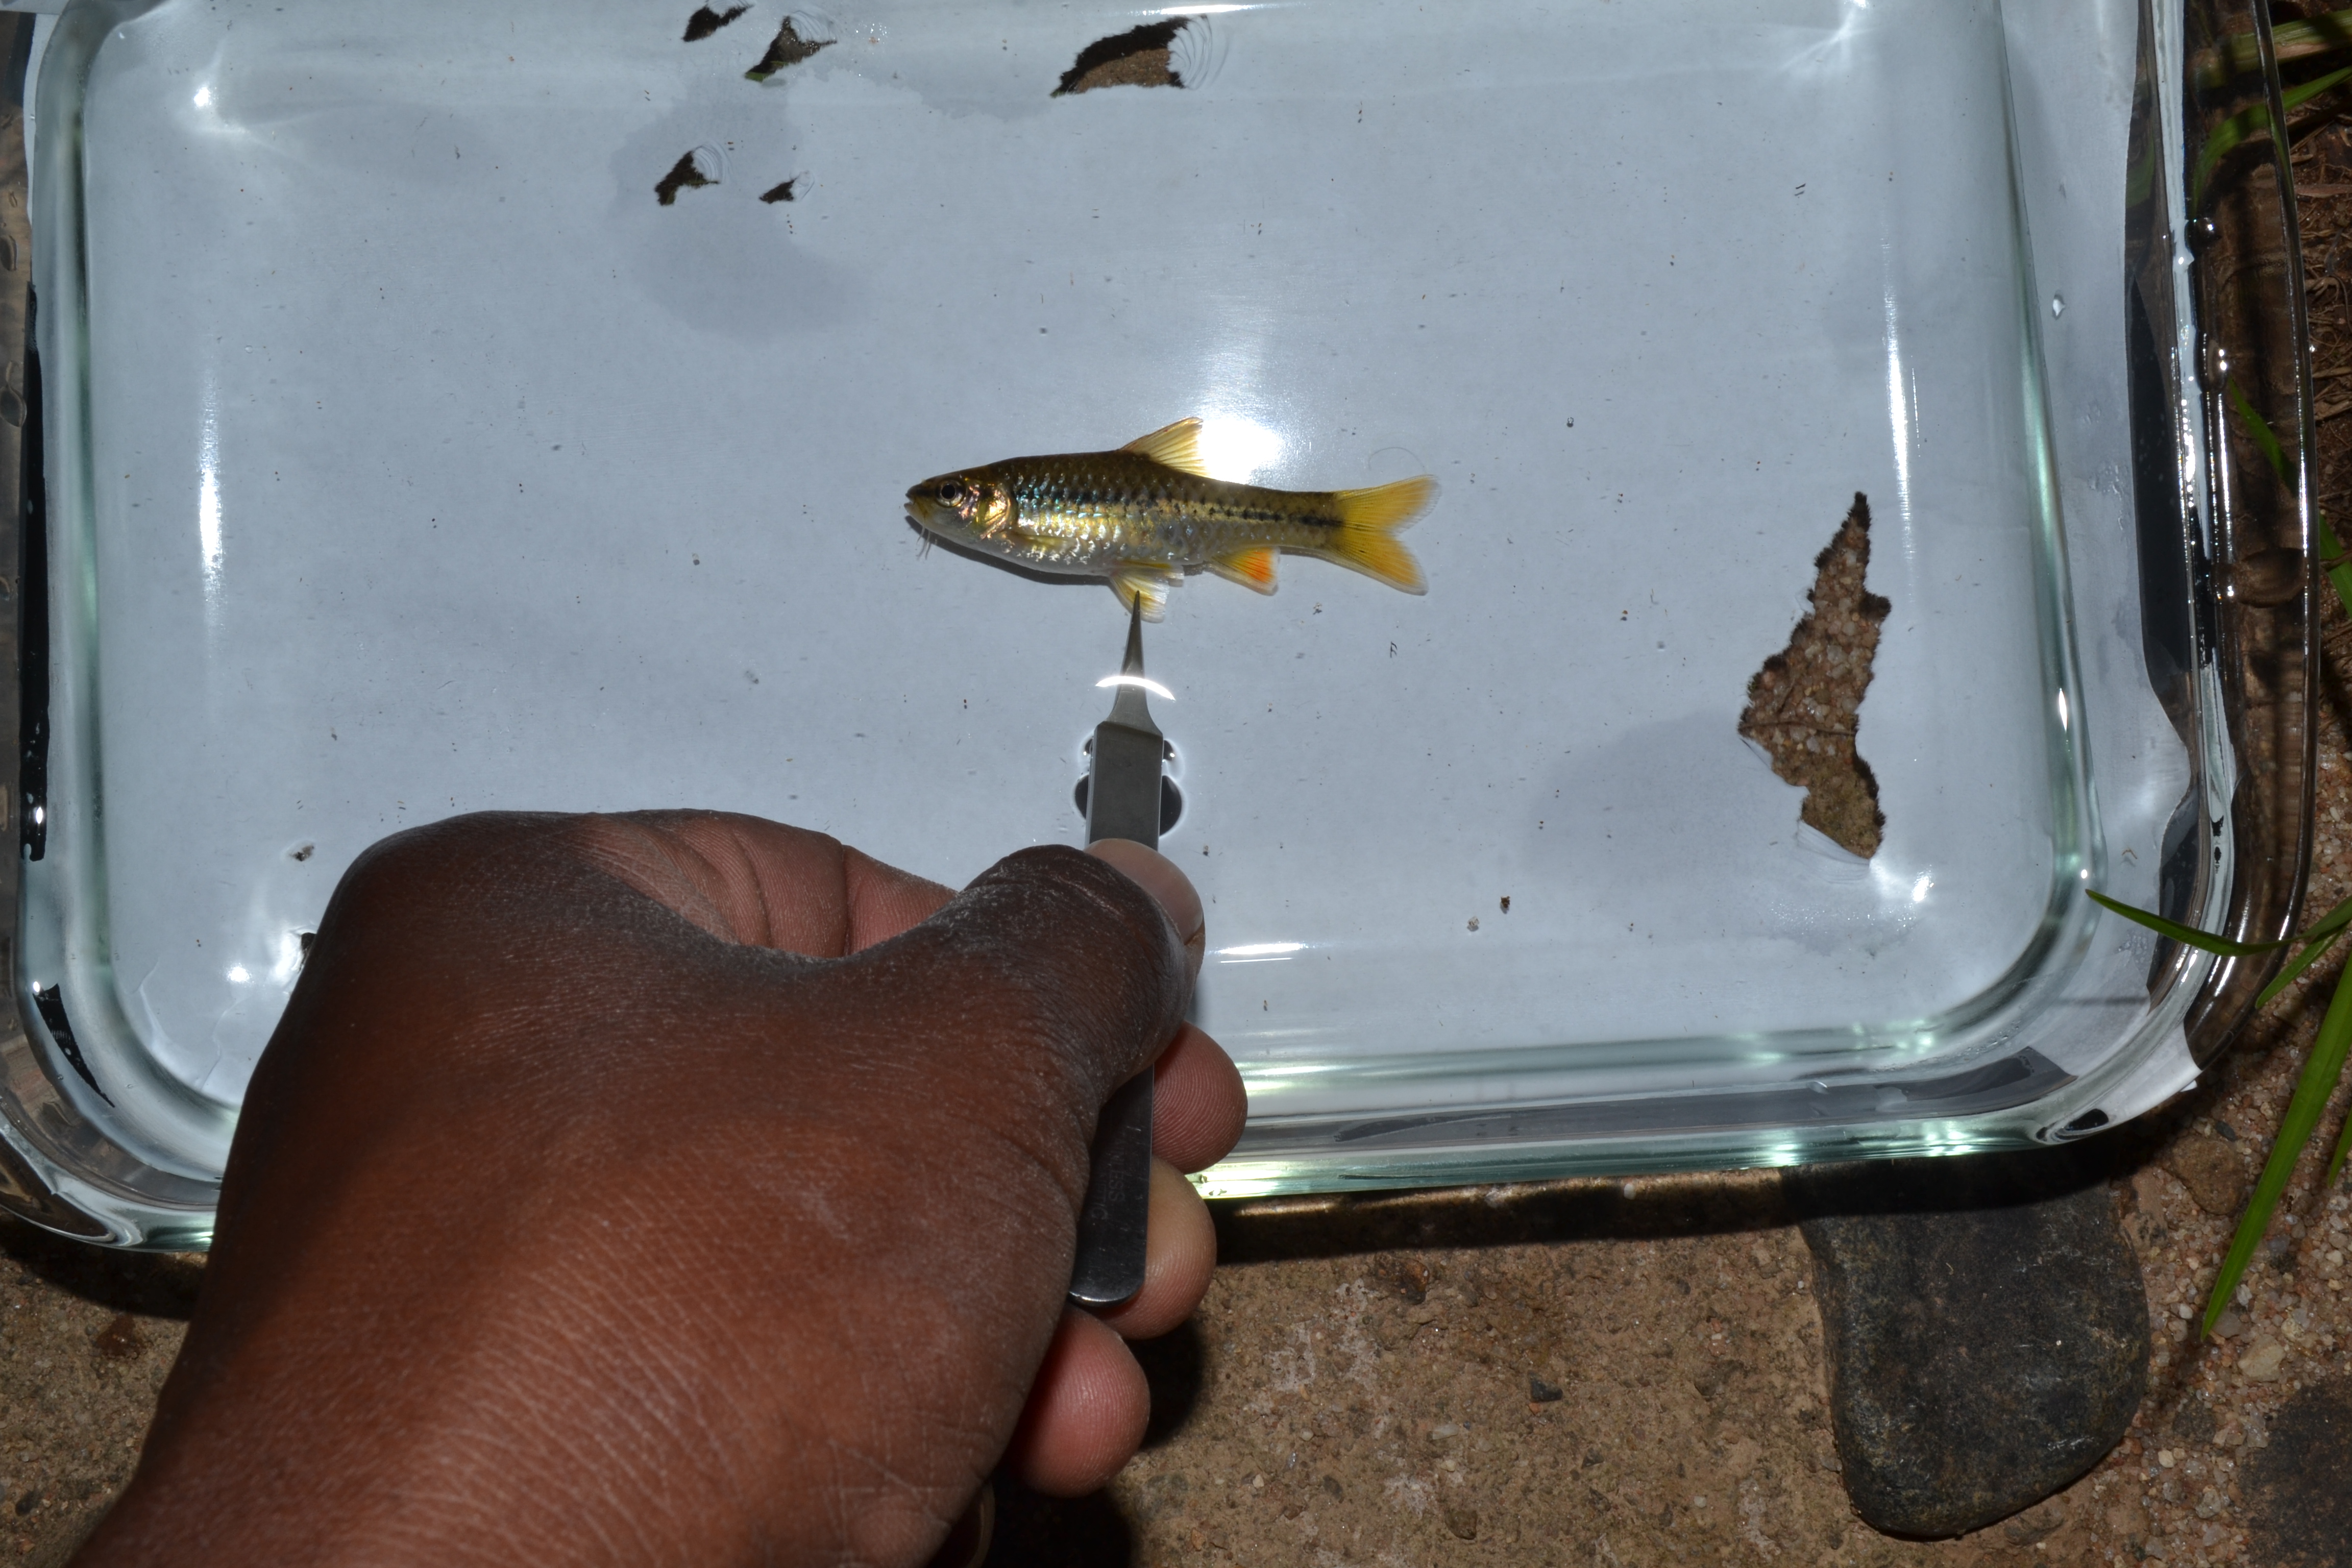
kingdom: Animalia
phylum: Chordata
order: Cypriniformes
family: Cyprinidae
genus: Enteromius
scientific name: Enteromius eutaenia
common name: Orangefin barb
